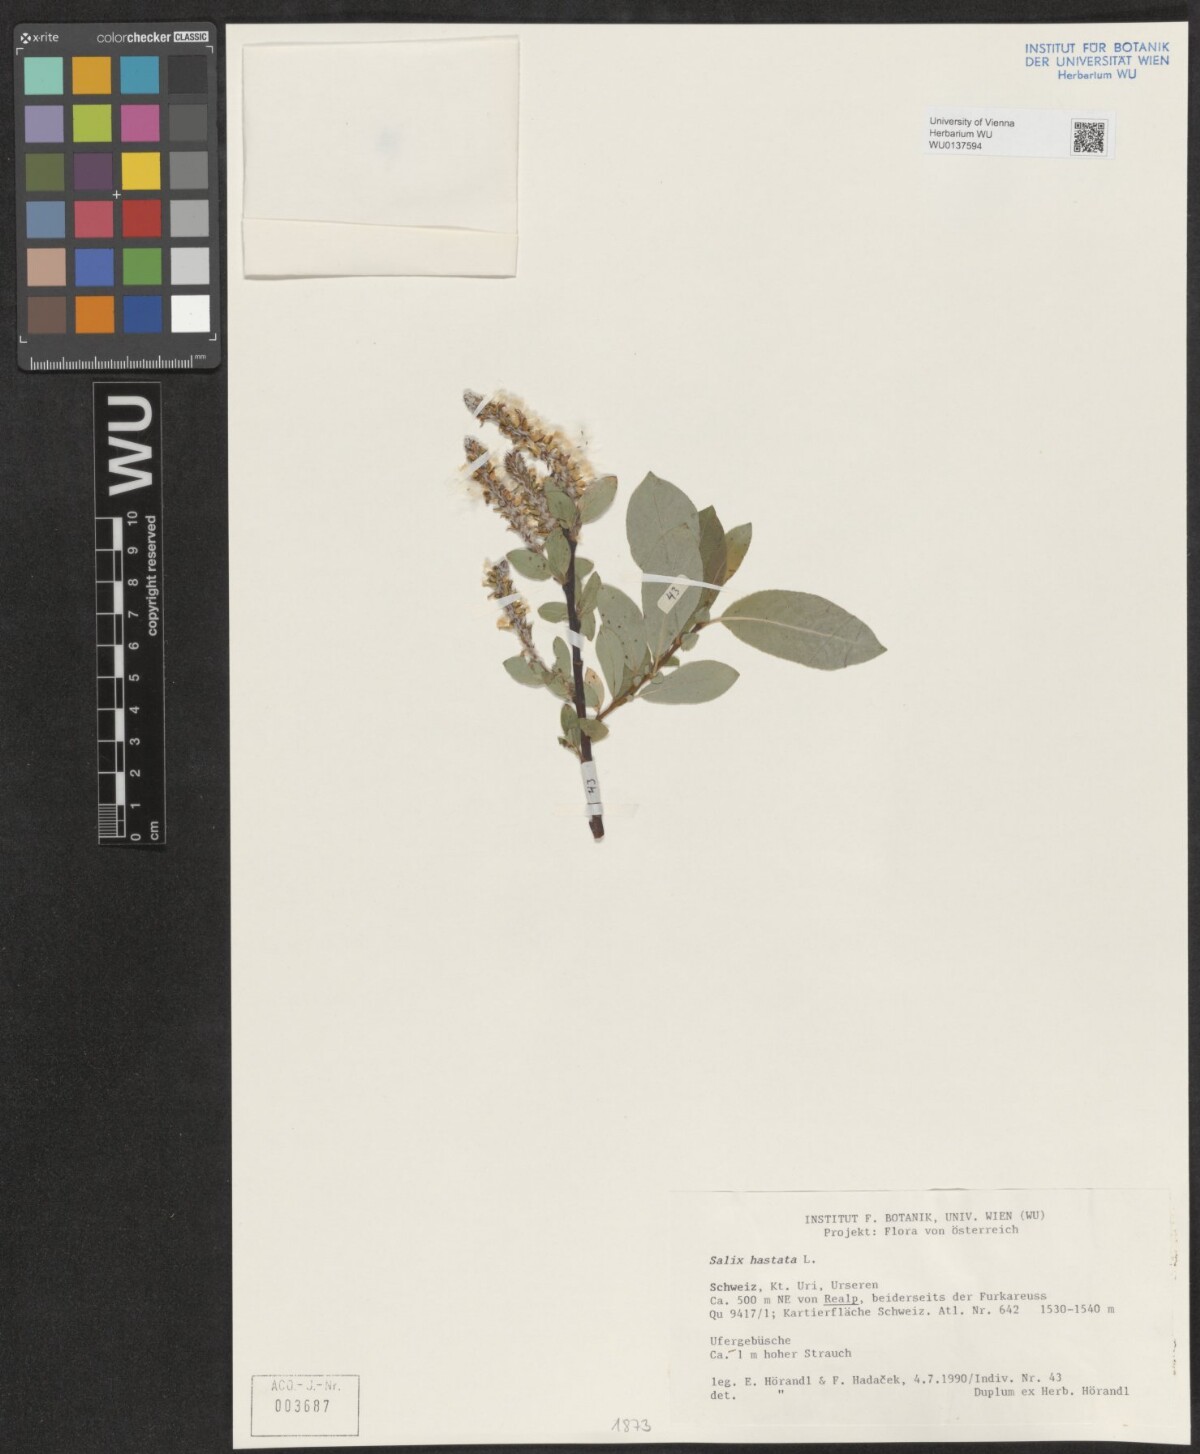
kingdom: Plantae
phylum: Tracheophyta
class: Magnoliopsida
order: Malpighiales
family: Salicaceae
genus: Salix
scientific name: Salix hastata
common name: Halberd willow
